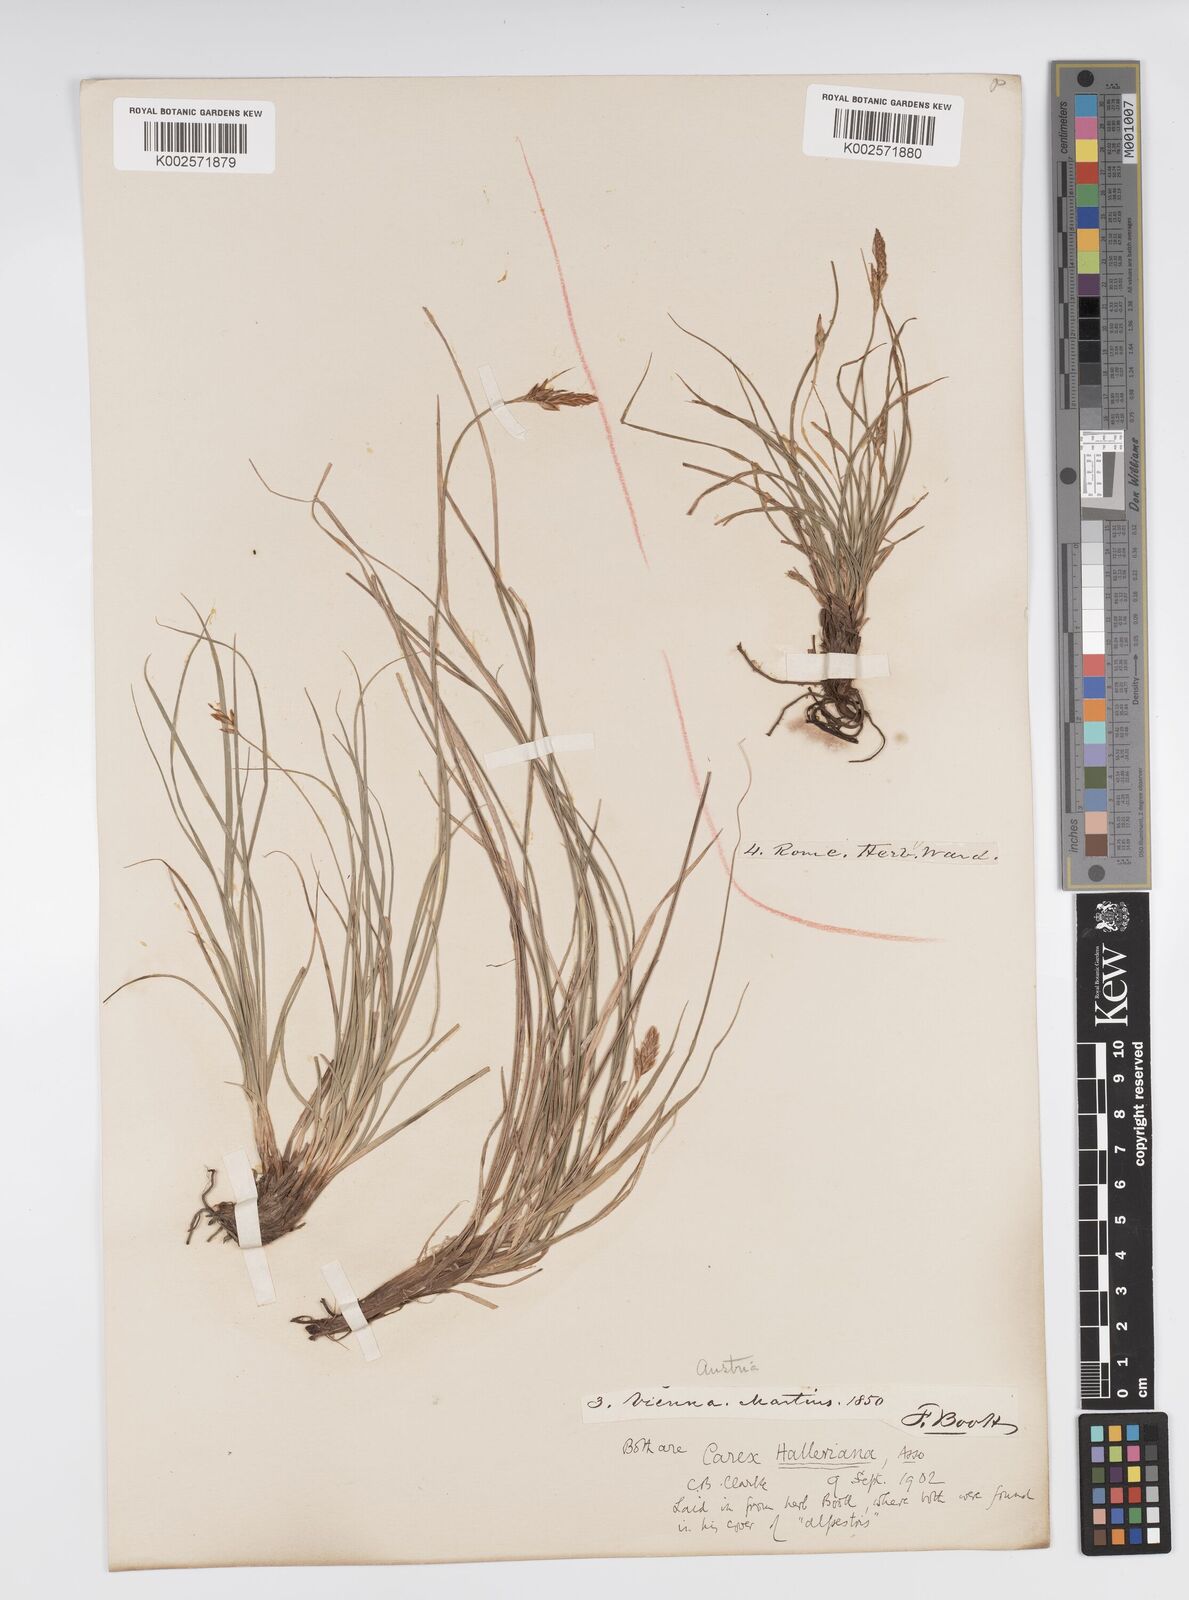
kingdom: Plantae
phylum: Tracheophyta
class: Liliopsida
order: Poales
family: Cyperaceae
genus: Carex
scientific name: Carex halleriana
